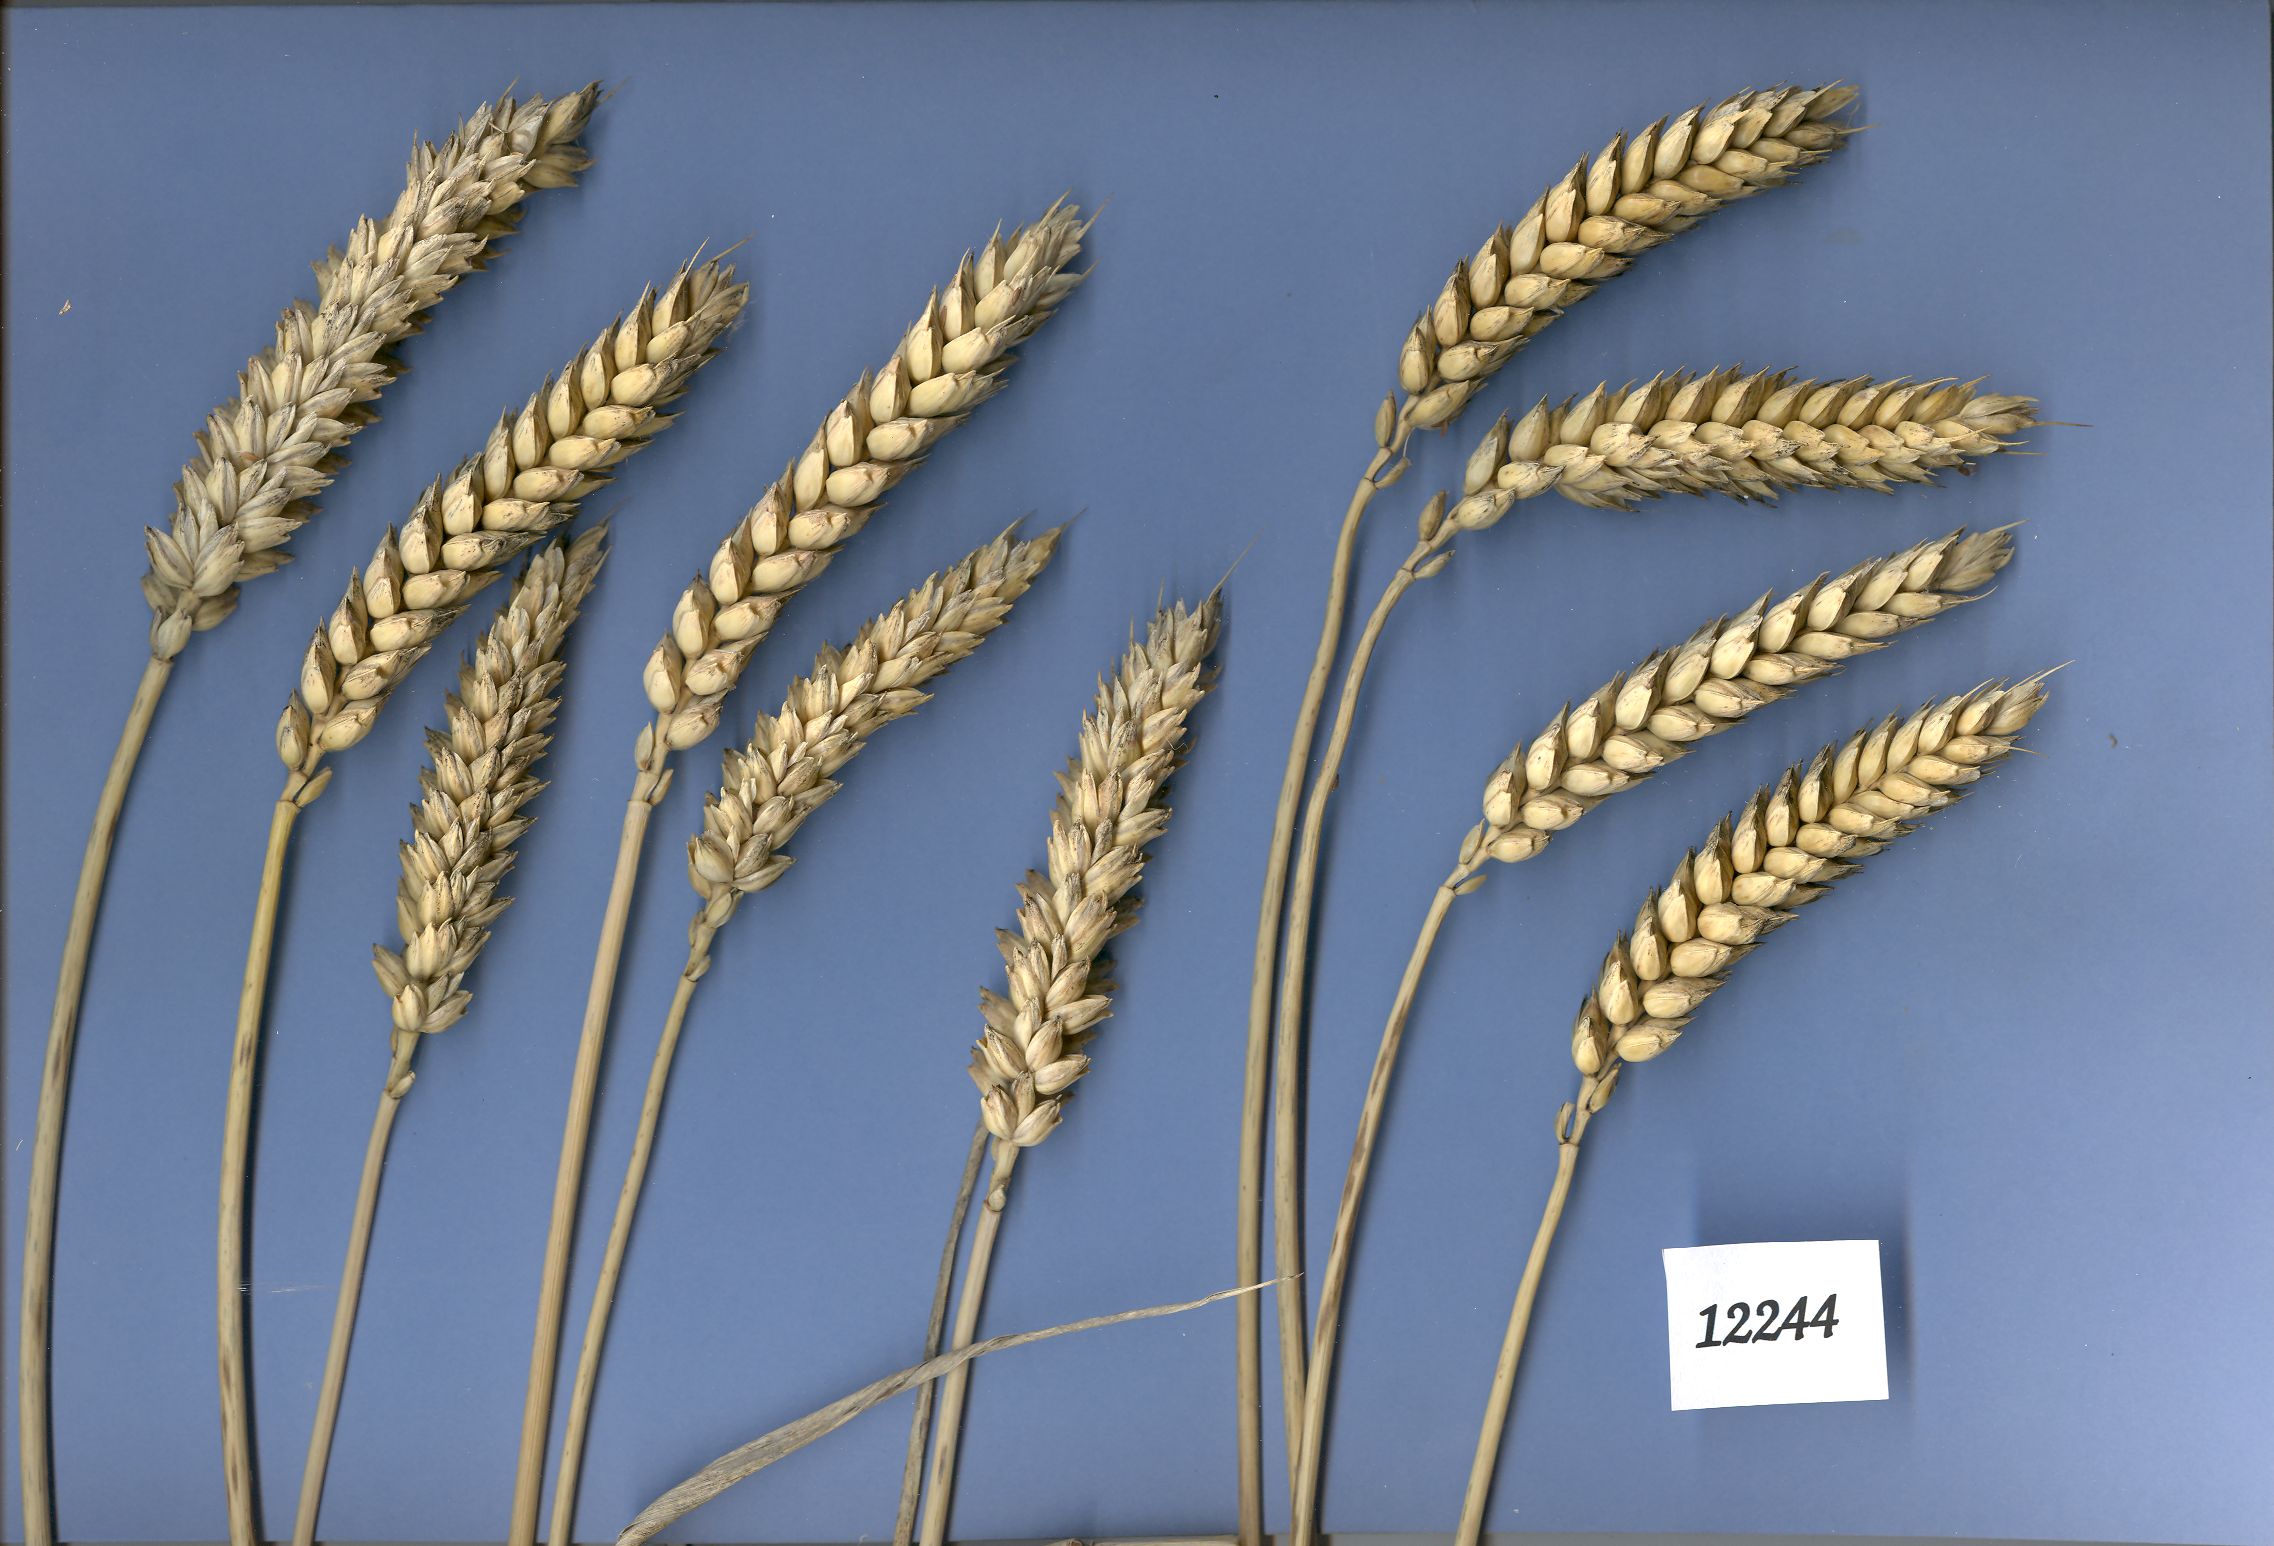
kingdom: Plantae
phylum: Tracheophyta
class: Liliopsida
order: Poales
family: Poaceae
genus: Triticum
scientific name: Triticum aestivum
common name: Common wheat
